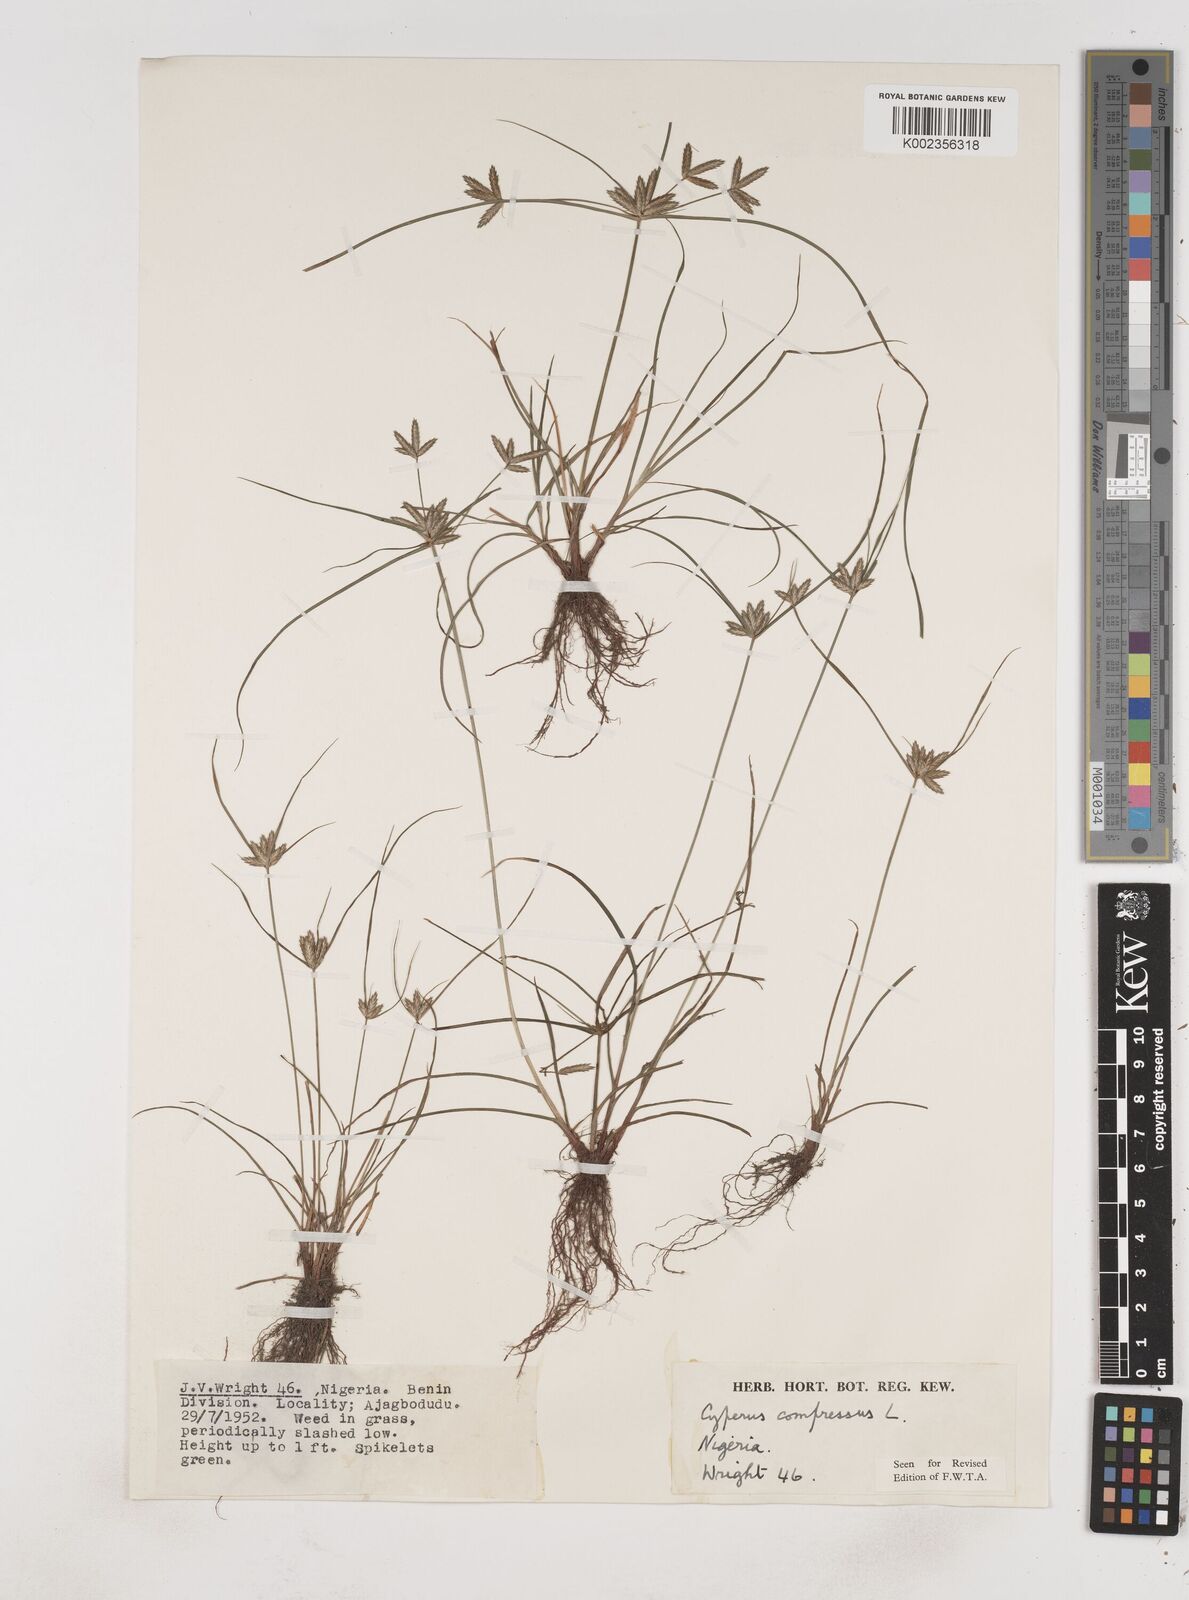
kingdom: Plantae
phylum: Tracheophyta
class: Liliopsida
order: Poales
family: Cyperaceae
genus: Cyperus
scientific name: Cyperus compressus
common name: Poorland flatsedge
